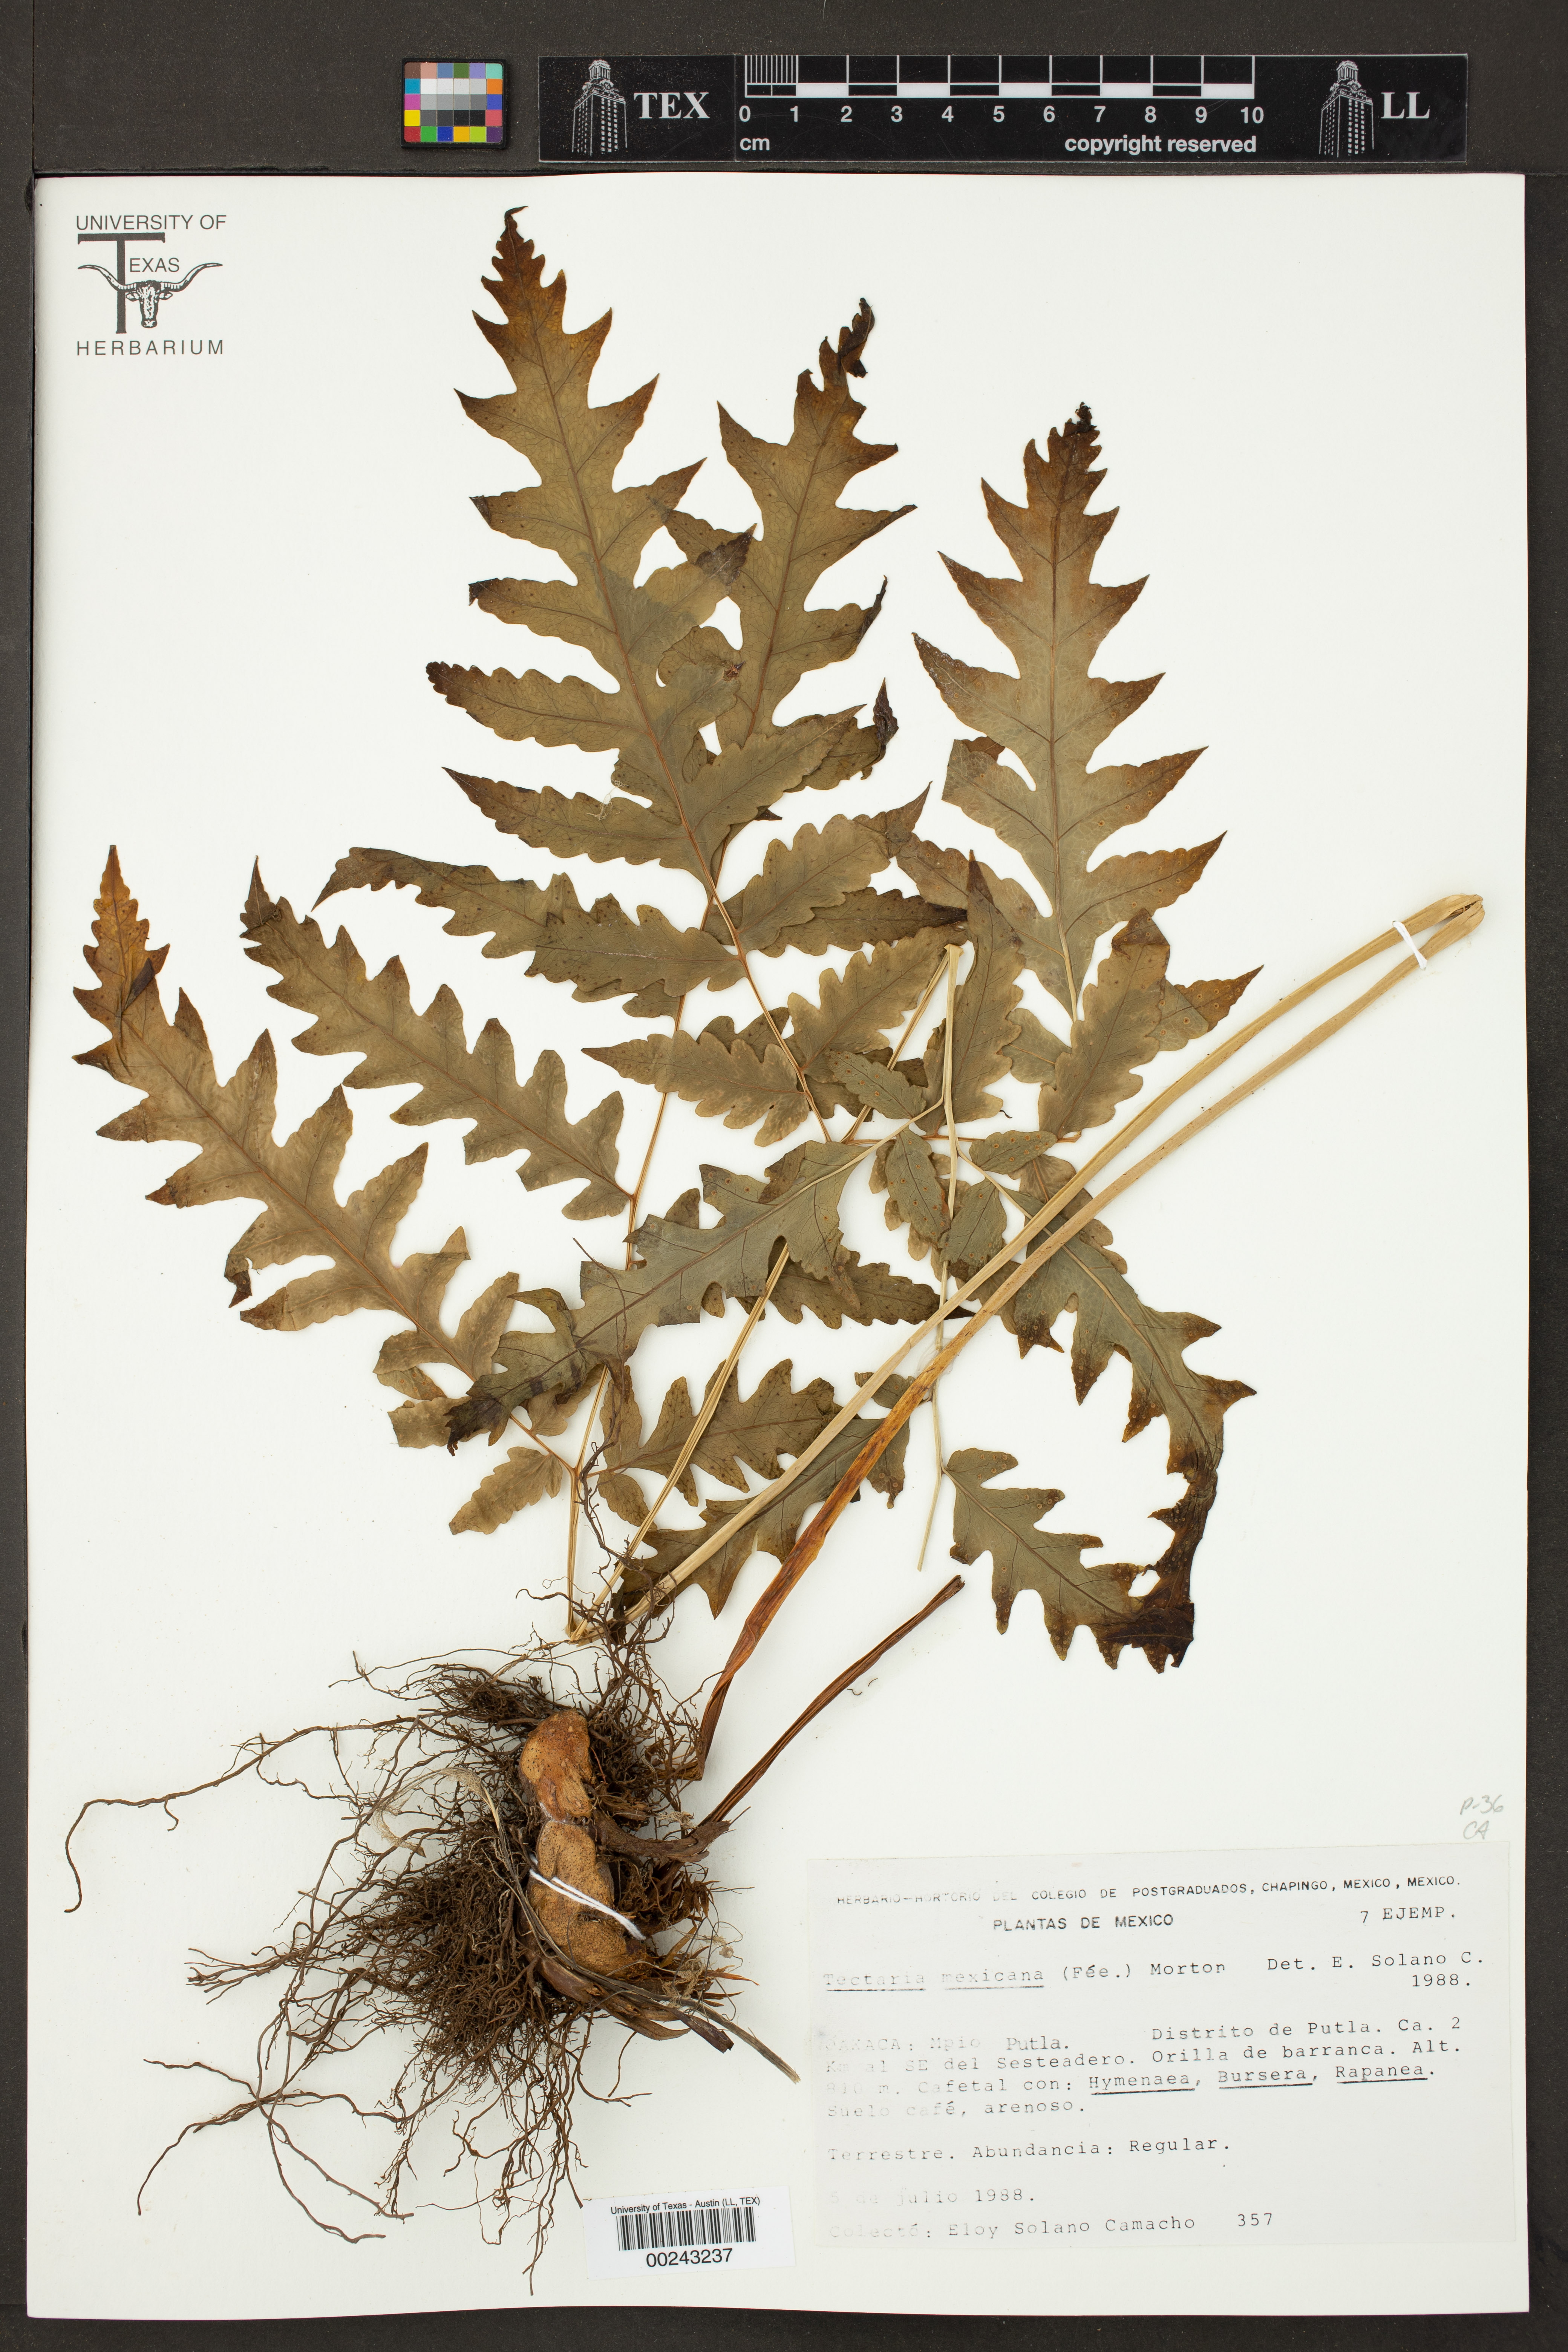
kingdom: Plantae
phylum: Tracheophyta
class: Polypodiopsida
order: Polypodiales
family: Tectariaceae
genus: Tectaria
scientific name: Tectaria mexicana
